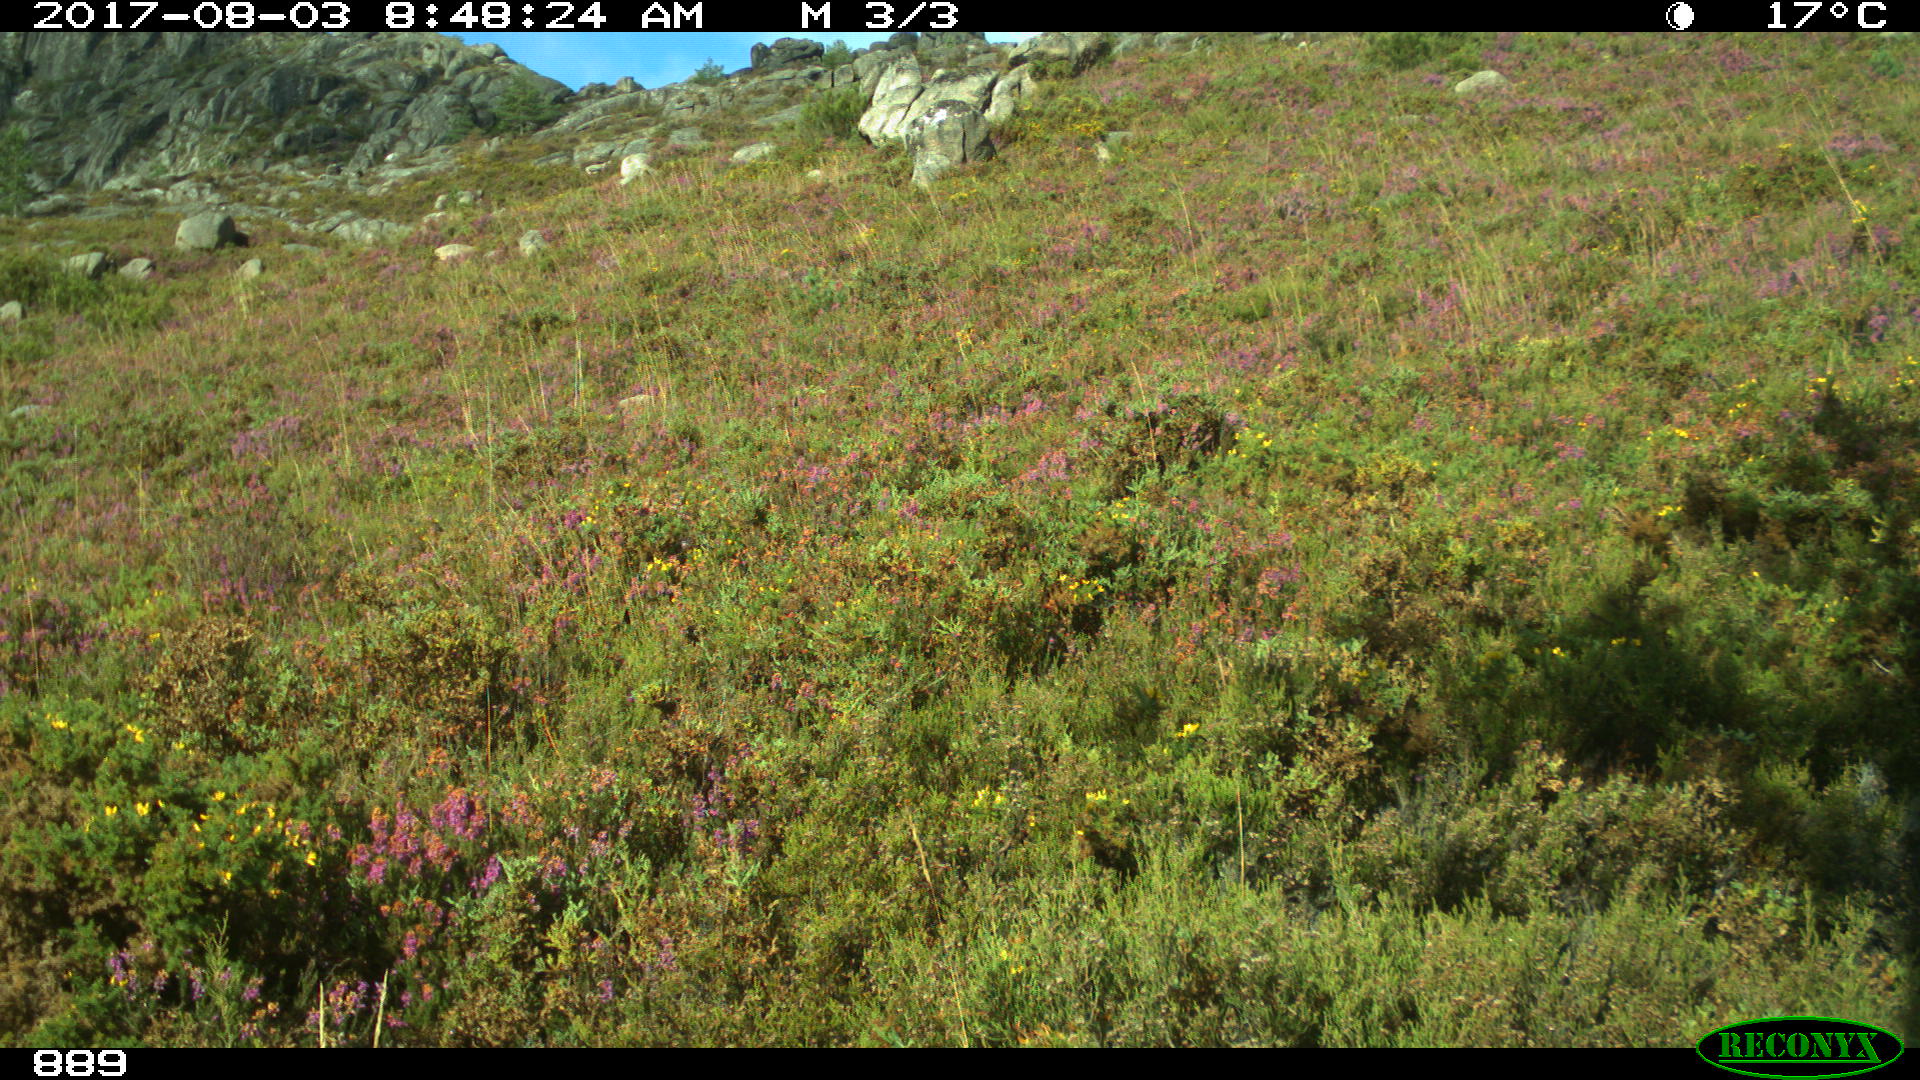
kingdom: Animalia
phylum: Chordata
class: Mammalia
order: Perissodactyla
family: Equidae
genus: Equus
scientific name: Equus caballus
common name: Horse
